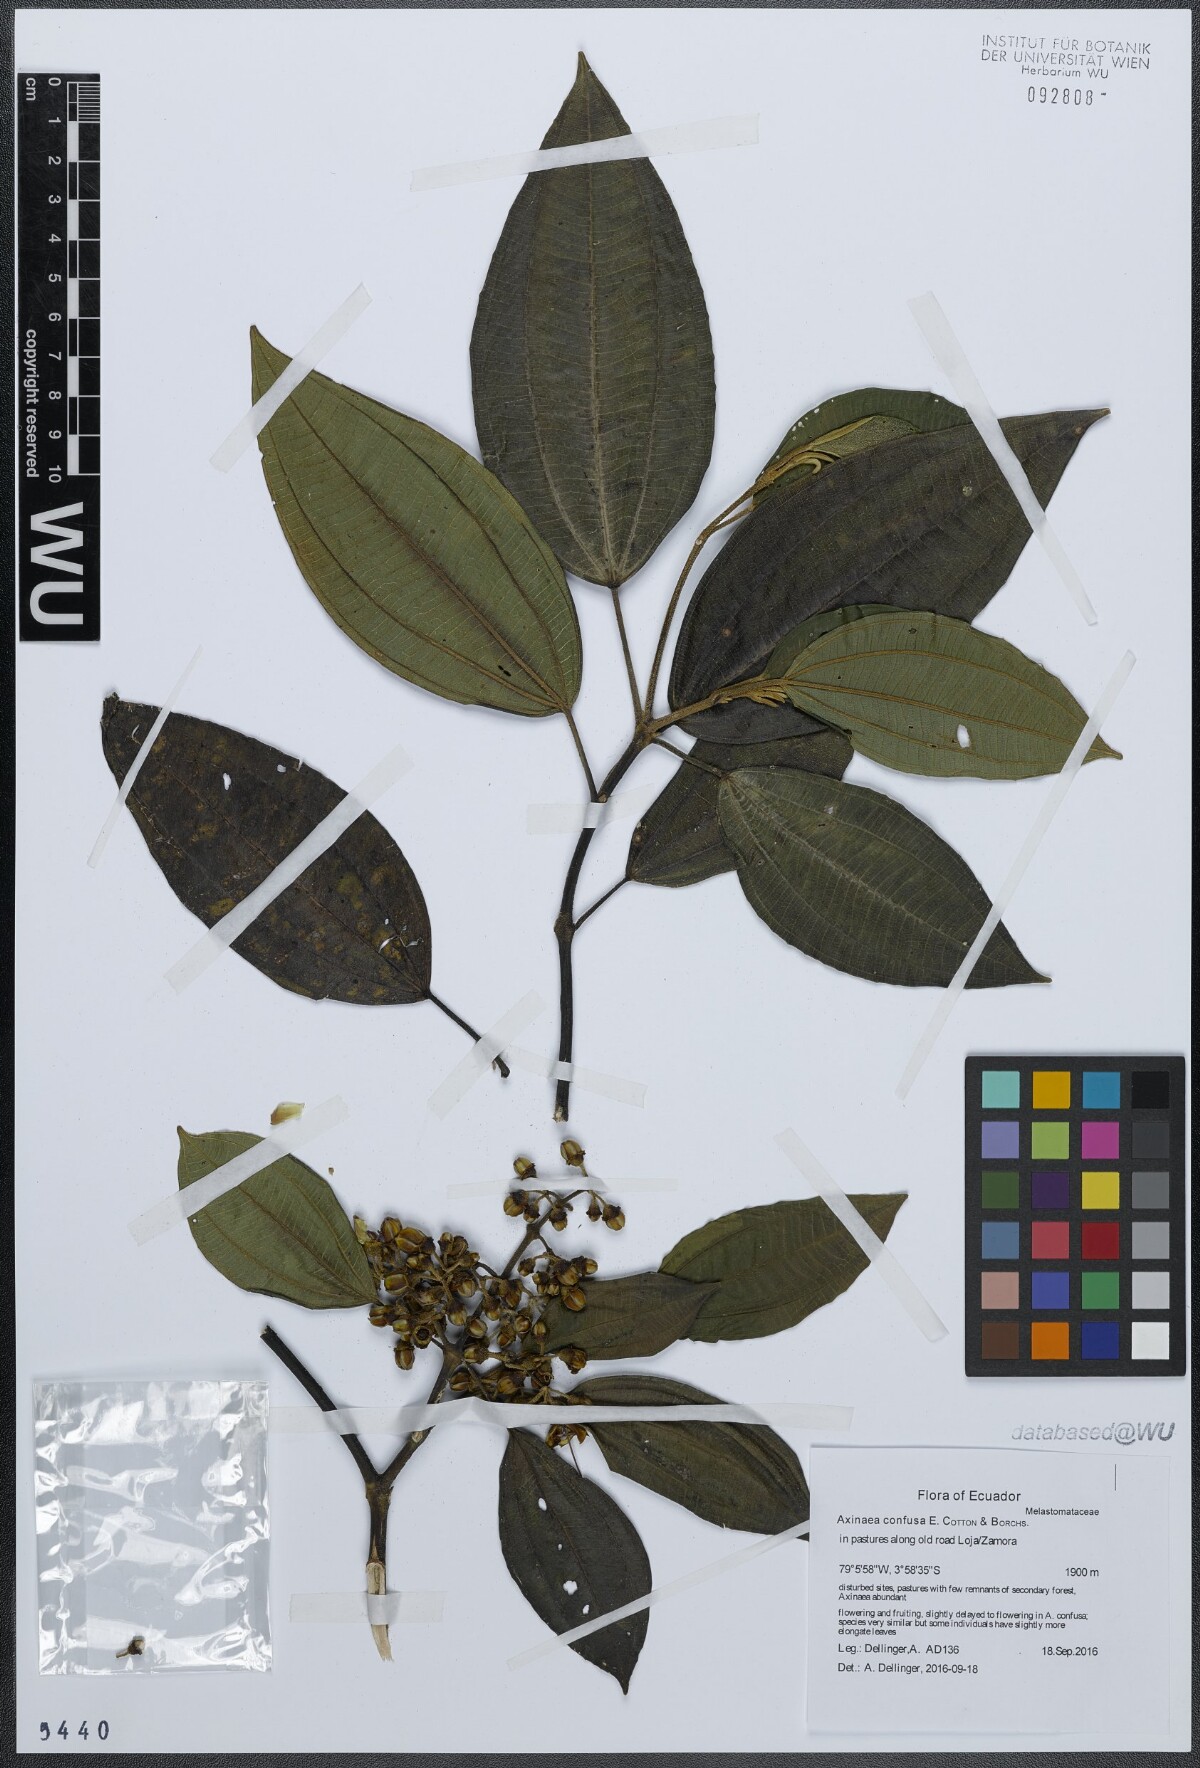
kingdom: Plantae
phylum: Tracheophyta
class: Magnoliopsida
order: Myrtales
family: Melastomataceae
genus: Axinaea
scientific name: Axinaea confusa
